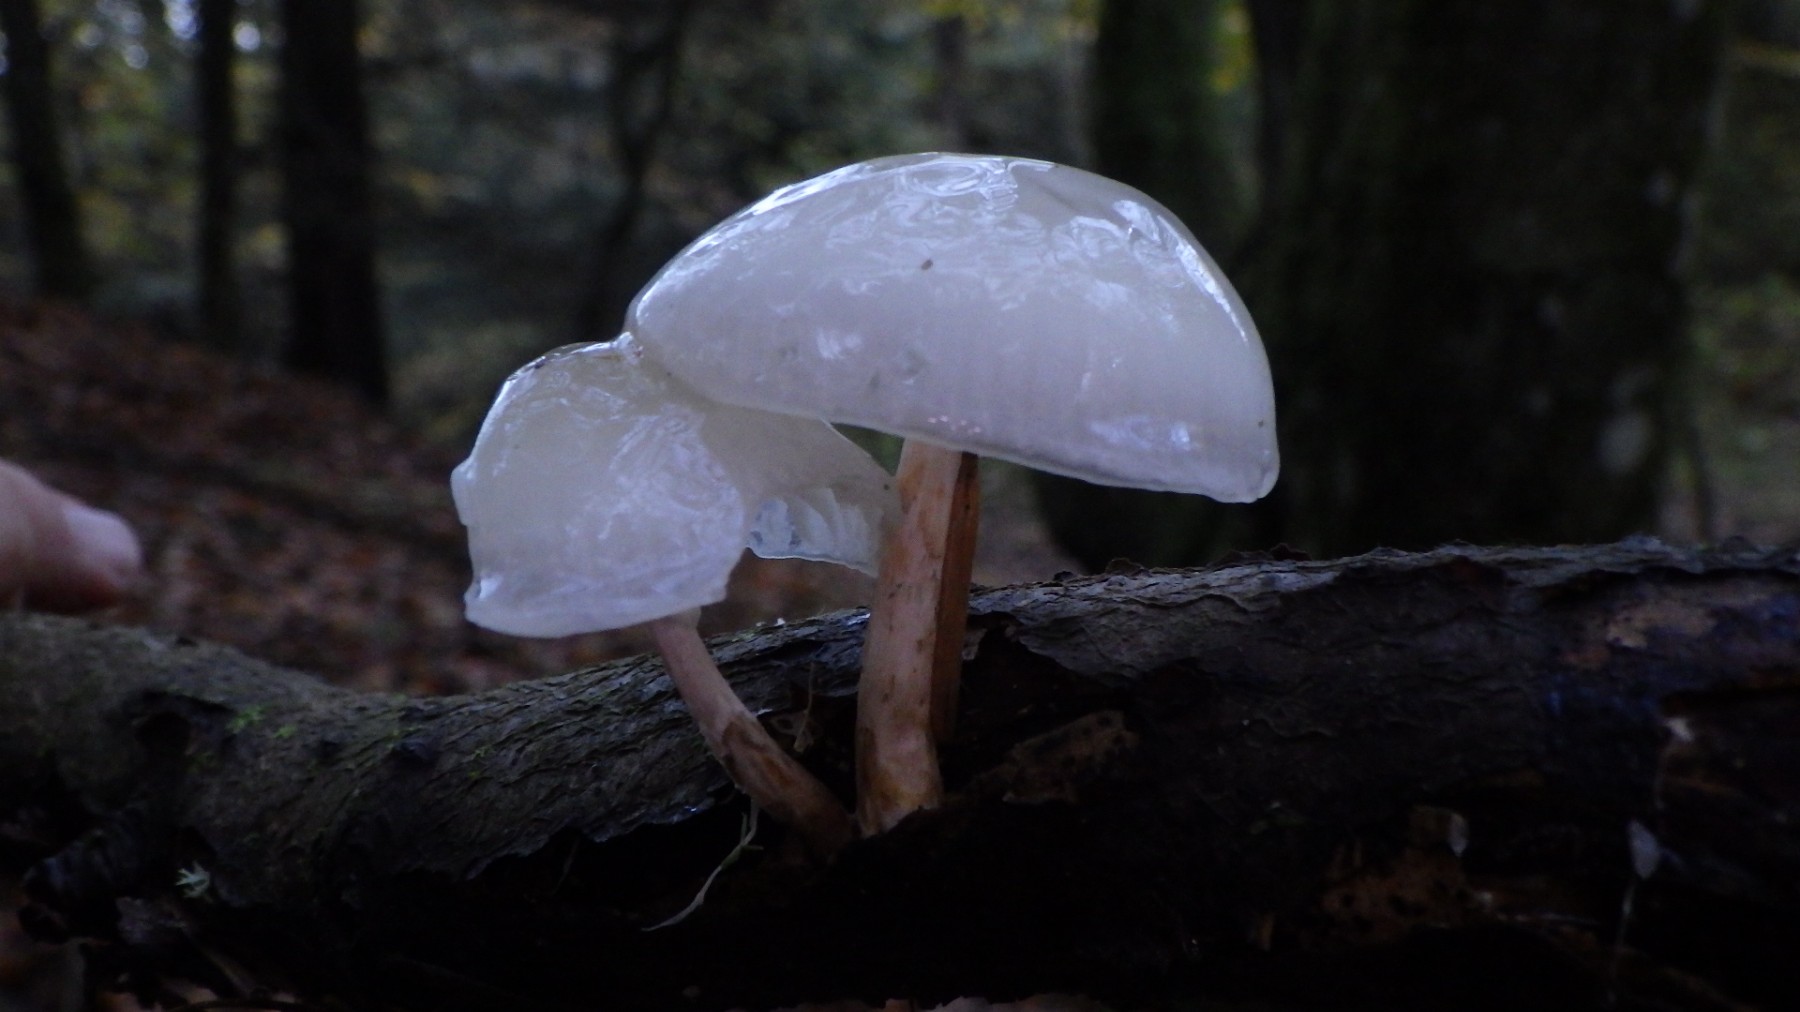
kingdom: Fungi
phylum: Basidiomycota
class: Agaricomycetes
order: Agaricales
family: Physalacriaceae
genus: Mucidula
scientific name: Mucidula mucida
